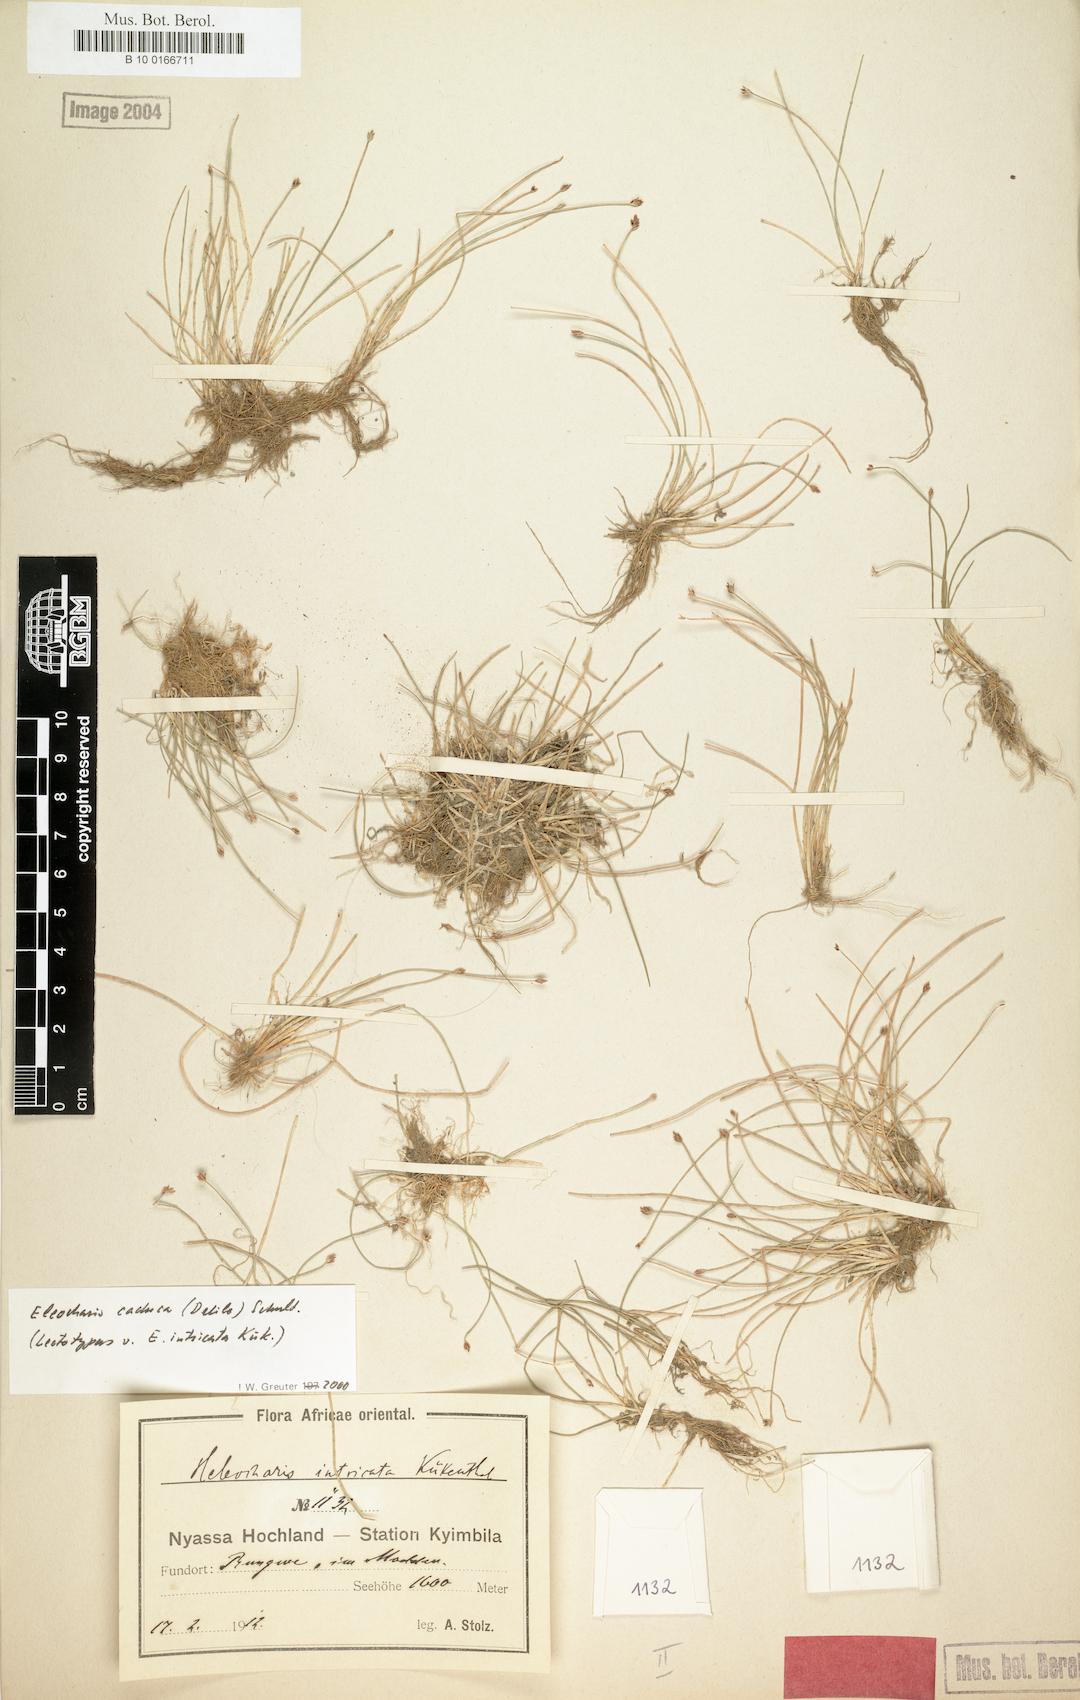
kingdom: Plantae
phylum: Tracheophyta
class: Liliopsida
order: Poales
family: Cyperaceae
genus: Eleocharis
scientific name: Eleocharis caduca
